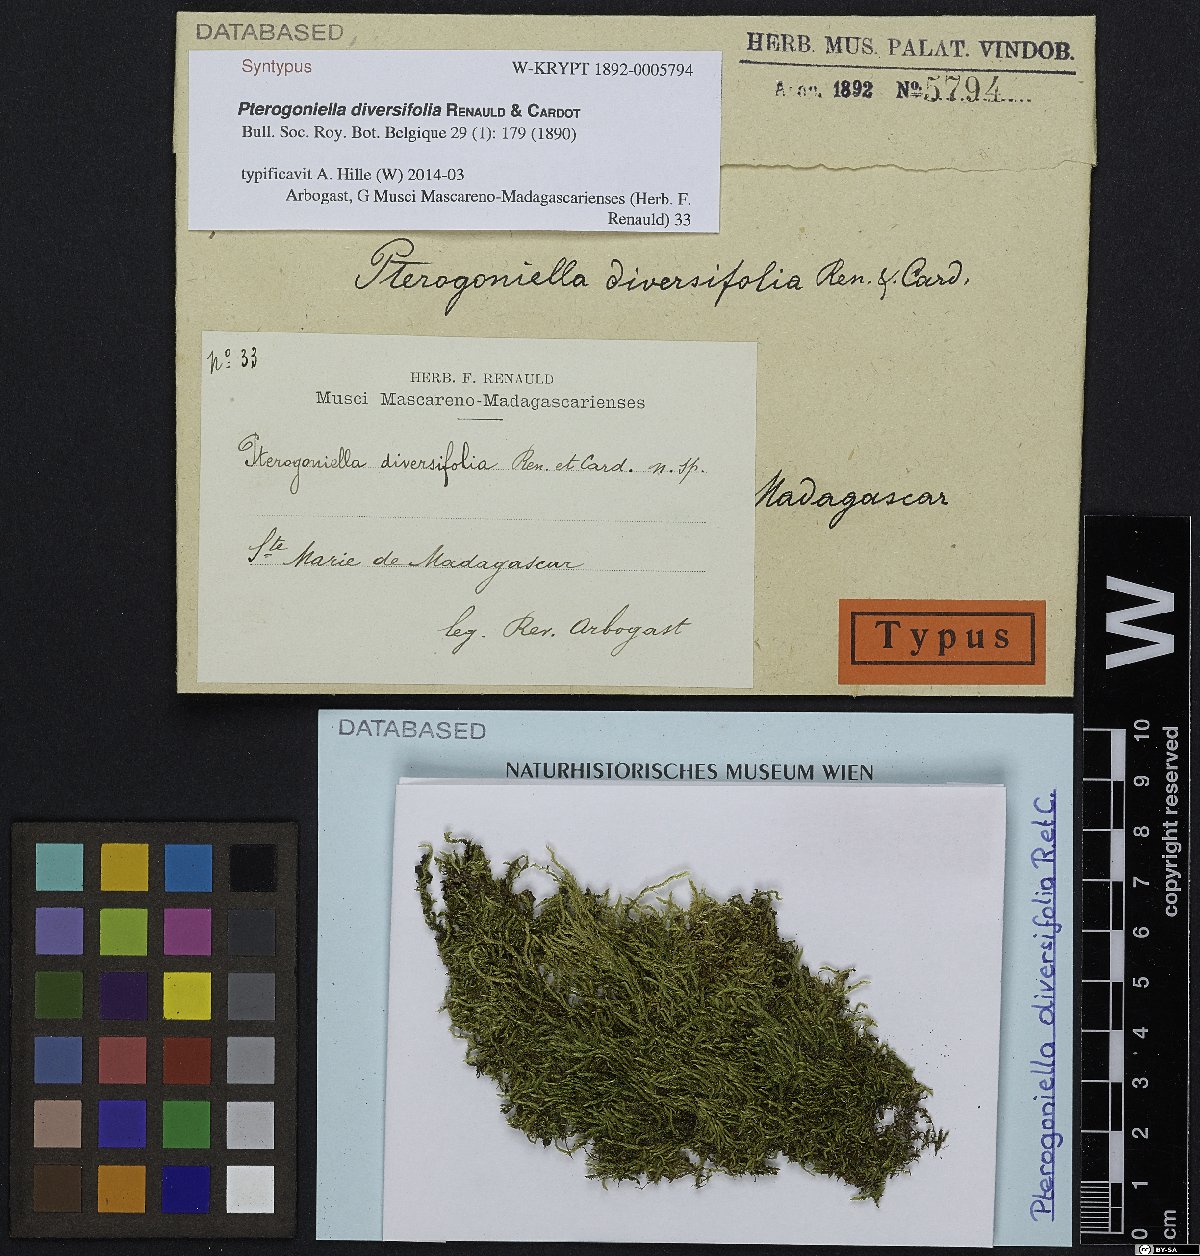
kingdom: Plantae
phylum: Bryophyta
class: Bryopsida
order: Hypnales
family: Sematophyllaceae
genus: Meiothecium
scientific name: Meiothecium madagascariense
